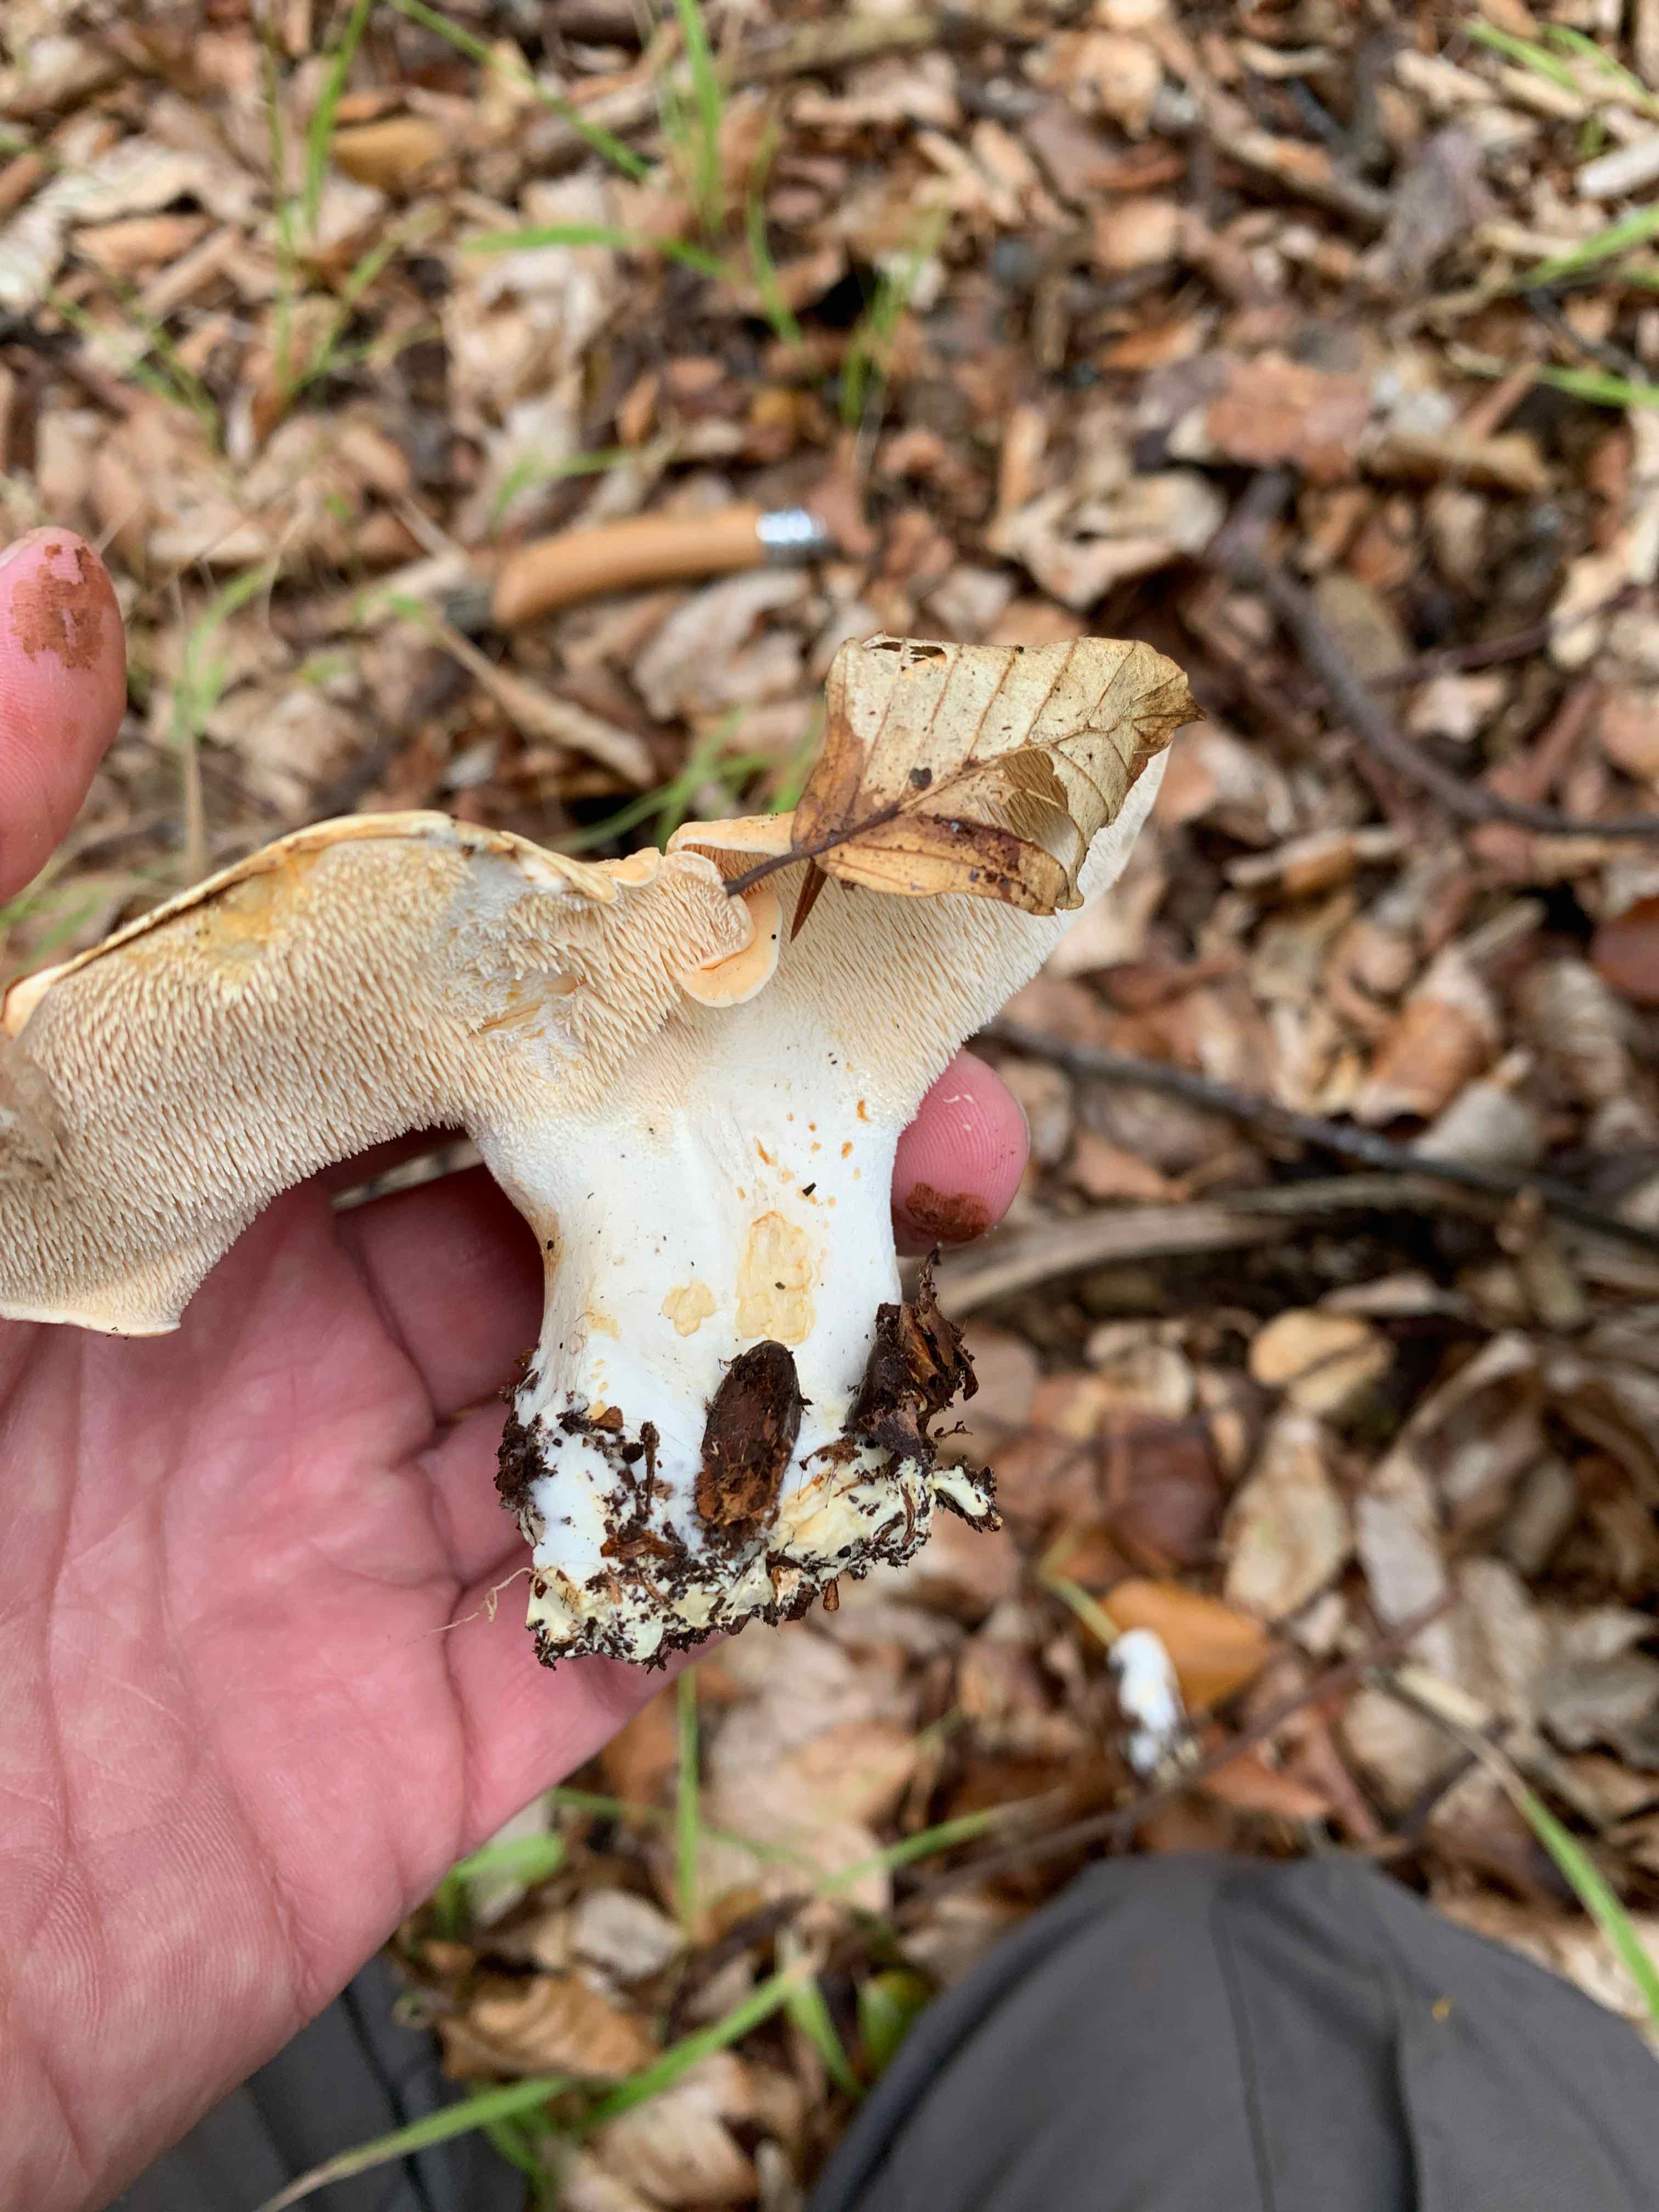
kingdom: Fungi
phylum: Basidiomycota
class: Agaricomycetes
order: Cantharellales
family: Hydnaceae
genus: Hydnum
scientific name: Hydnum repandum
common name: almindelig pigsvamp
